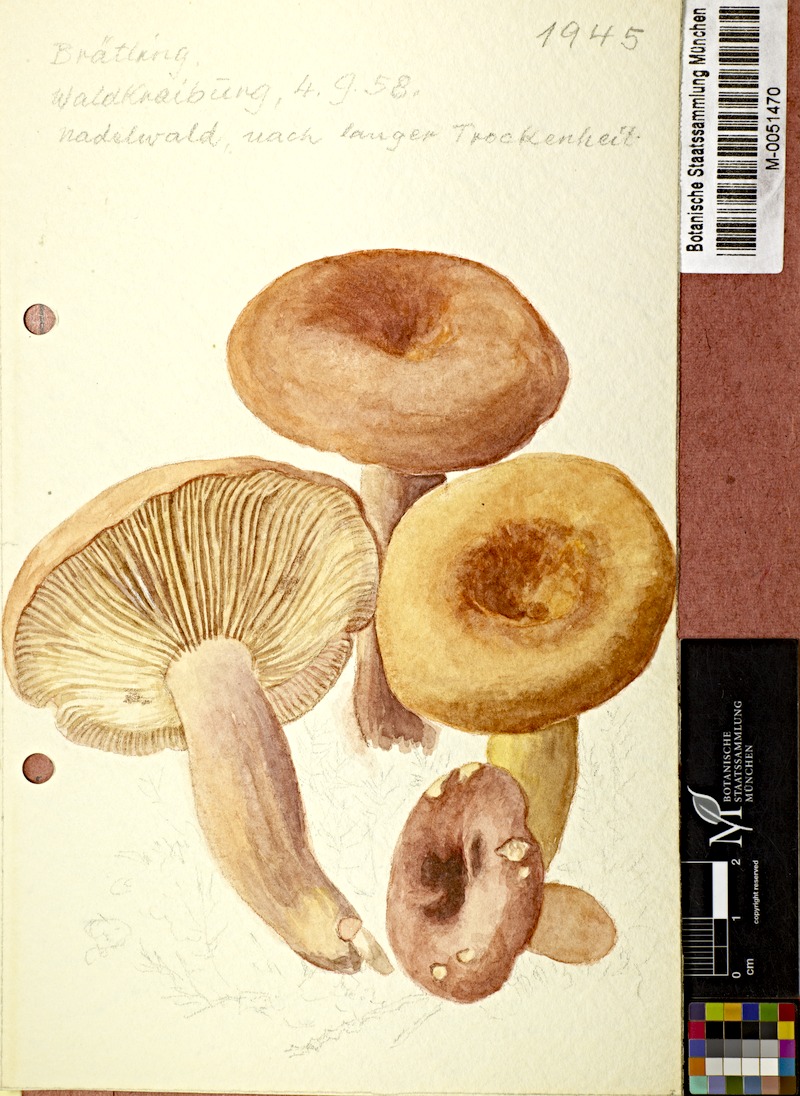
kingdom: Fungi
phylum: Basidiomycota
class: Agaricomycetes
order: Russulales
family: Russulaceae
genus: Lactifluus
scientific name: Lactifluus volemus
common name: Fishy milkcap
